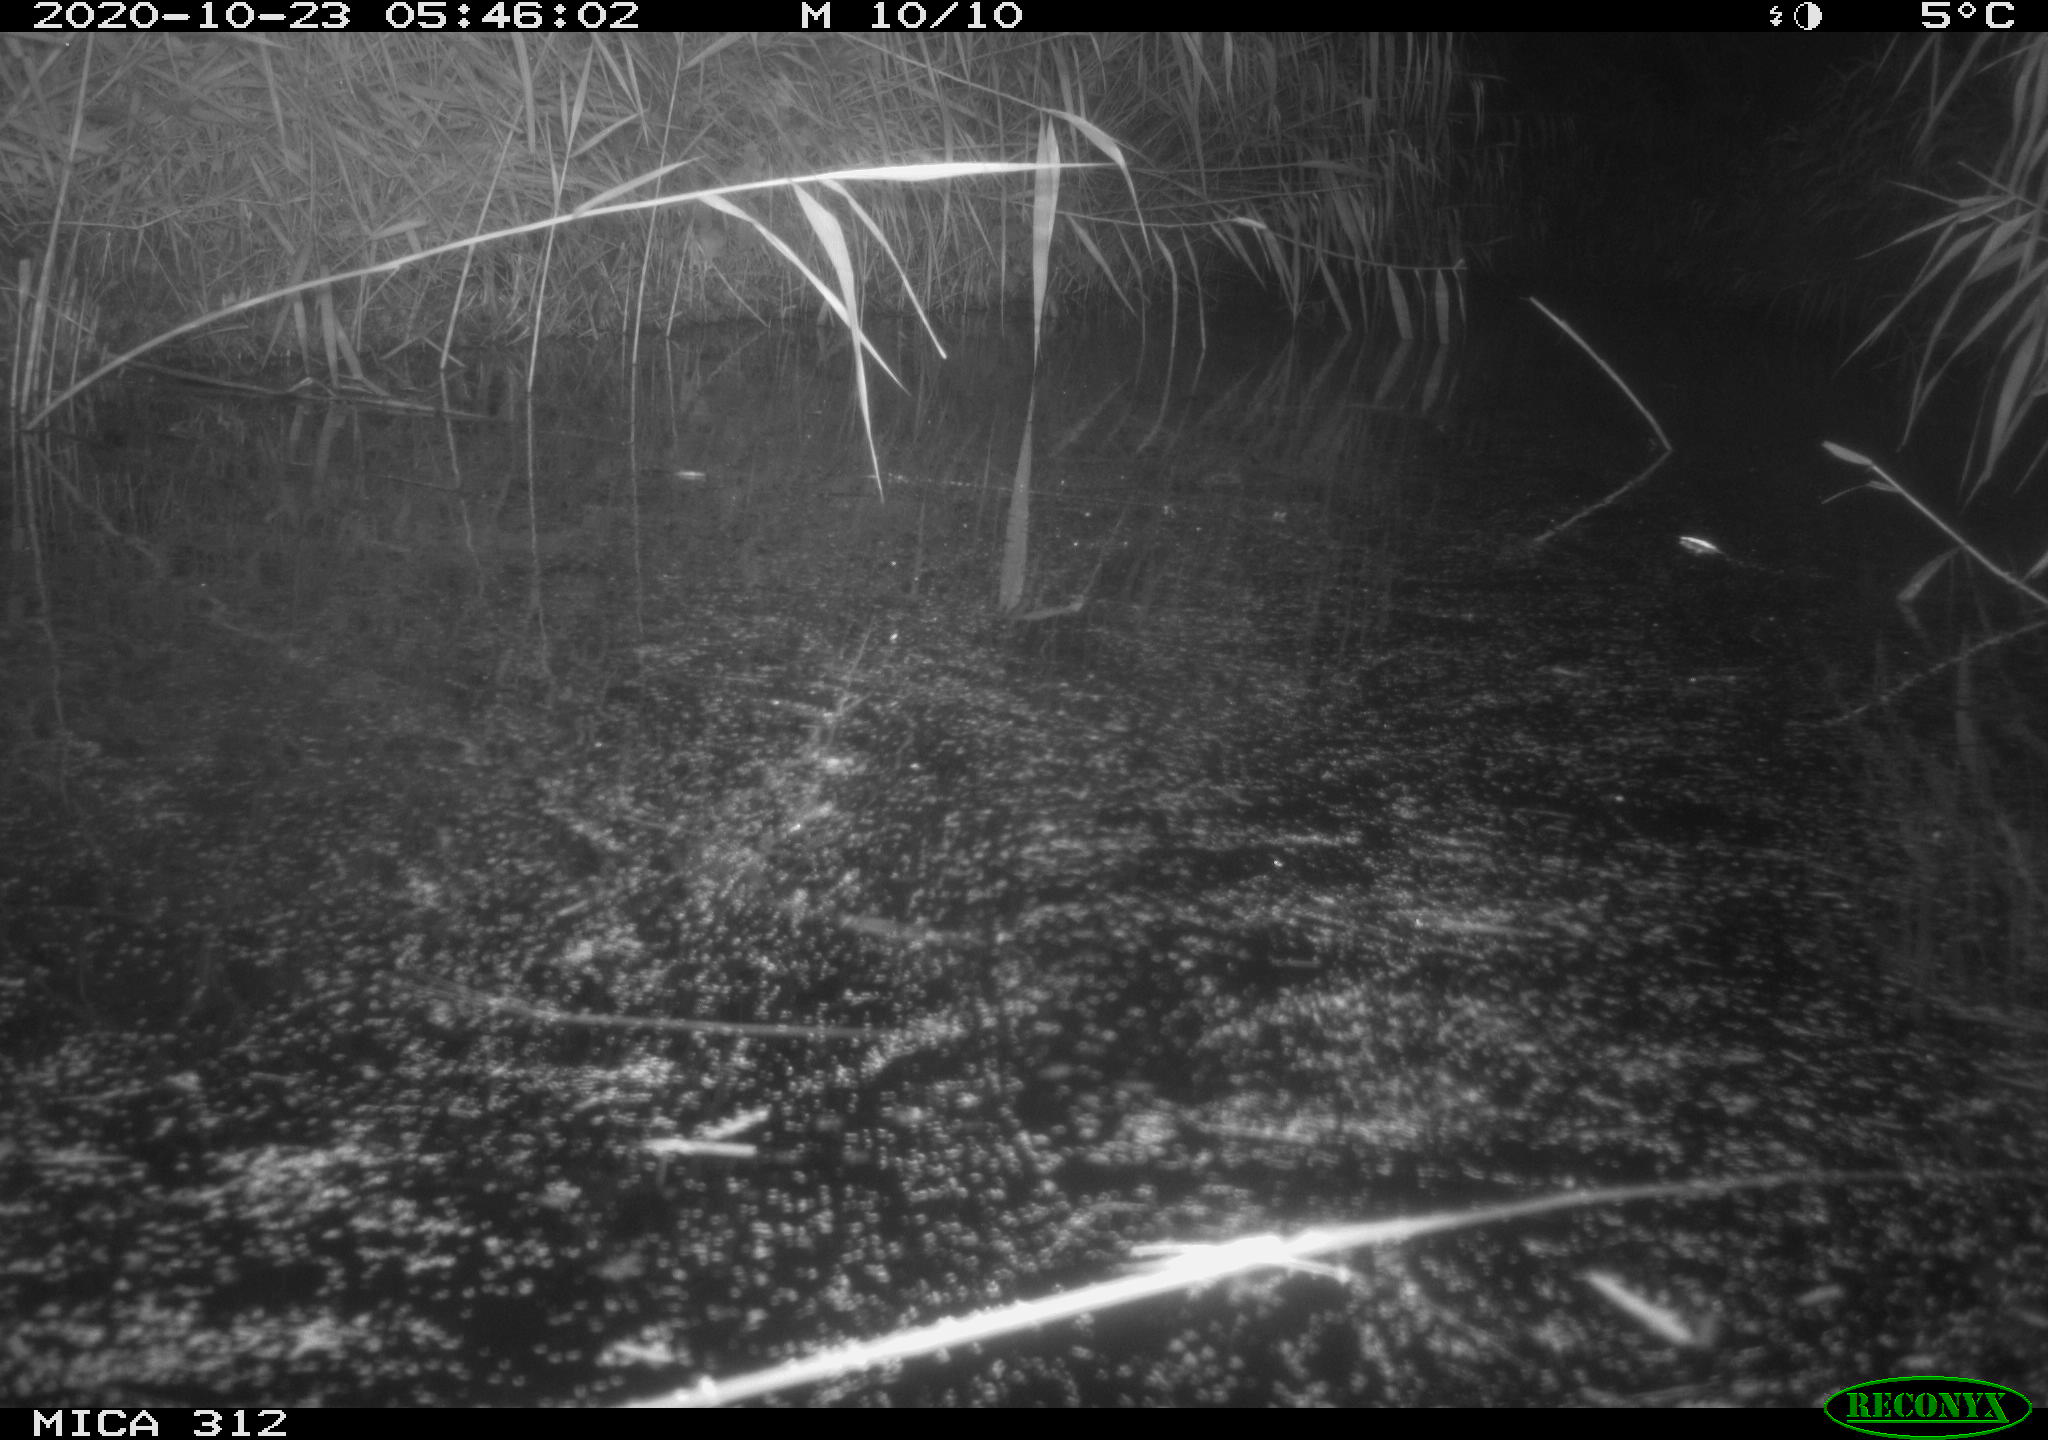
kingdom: Animalia
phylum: Chordata
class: Mammalia
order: Rodentia
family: Muridae
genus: Rattus
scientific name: Rattus norvegicus
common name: Brown rat
